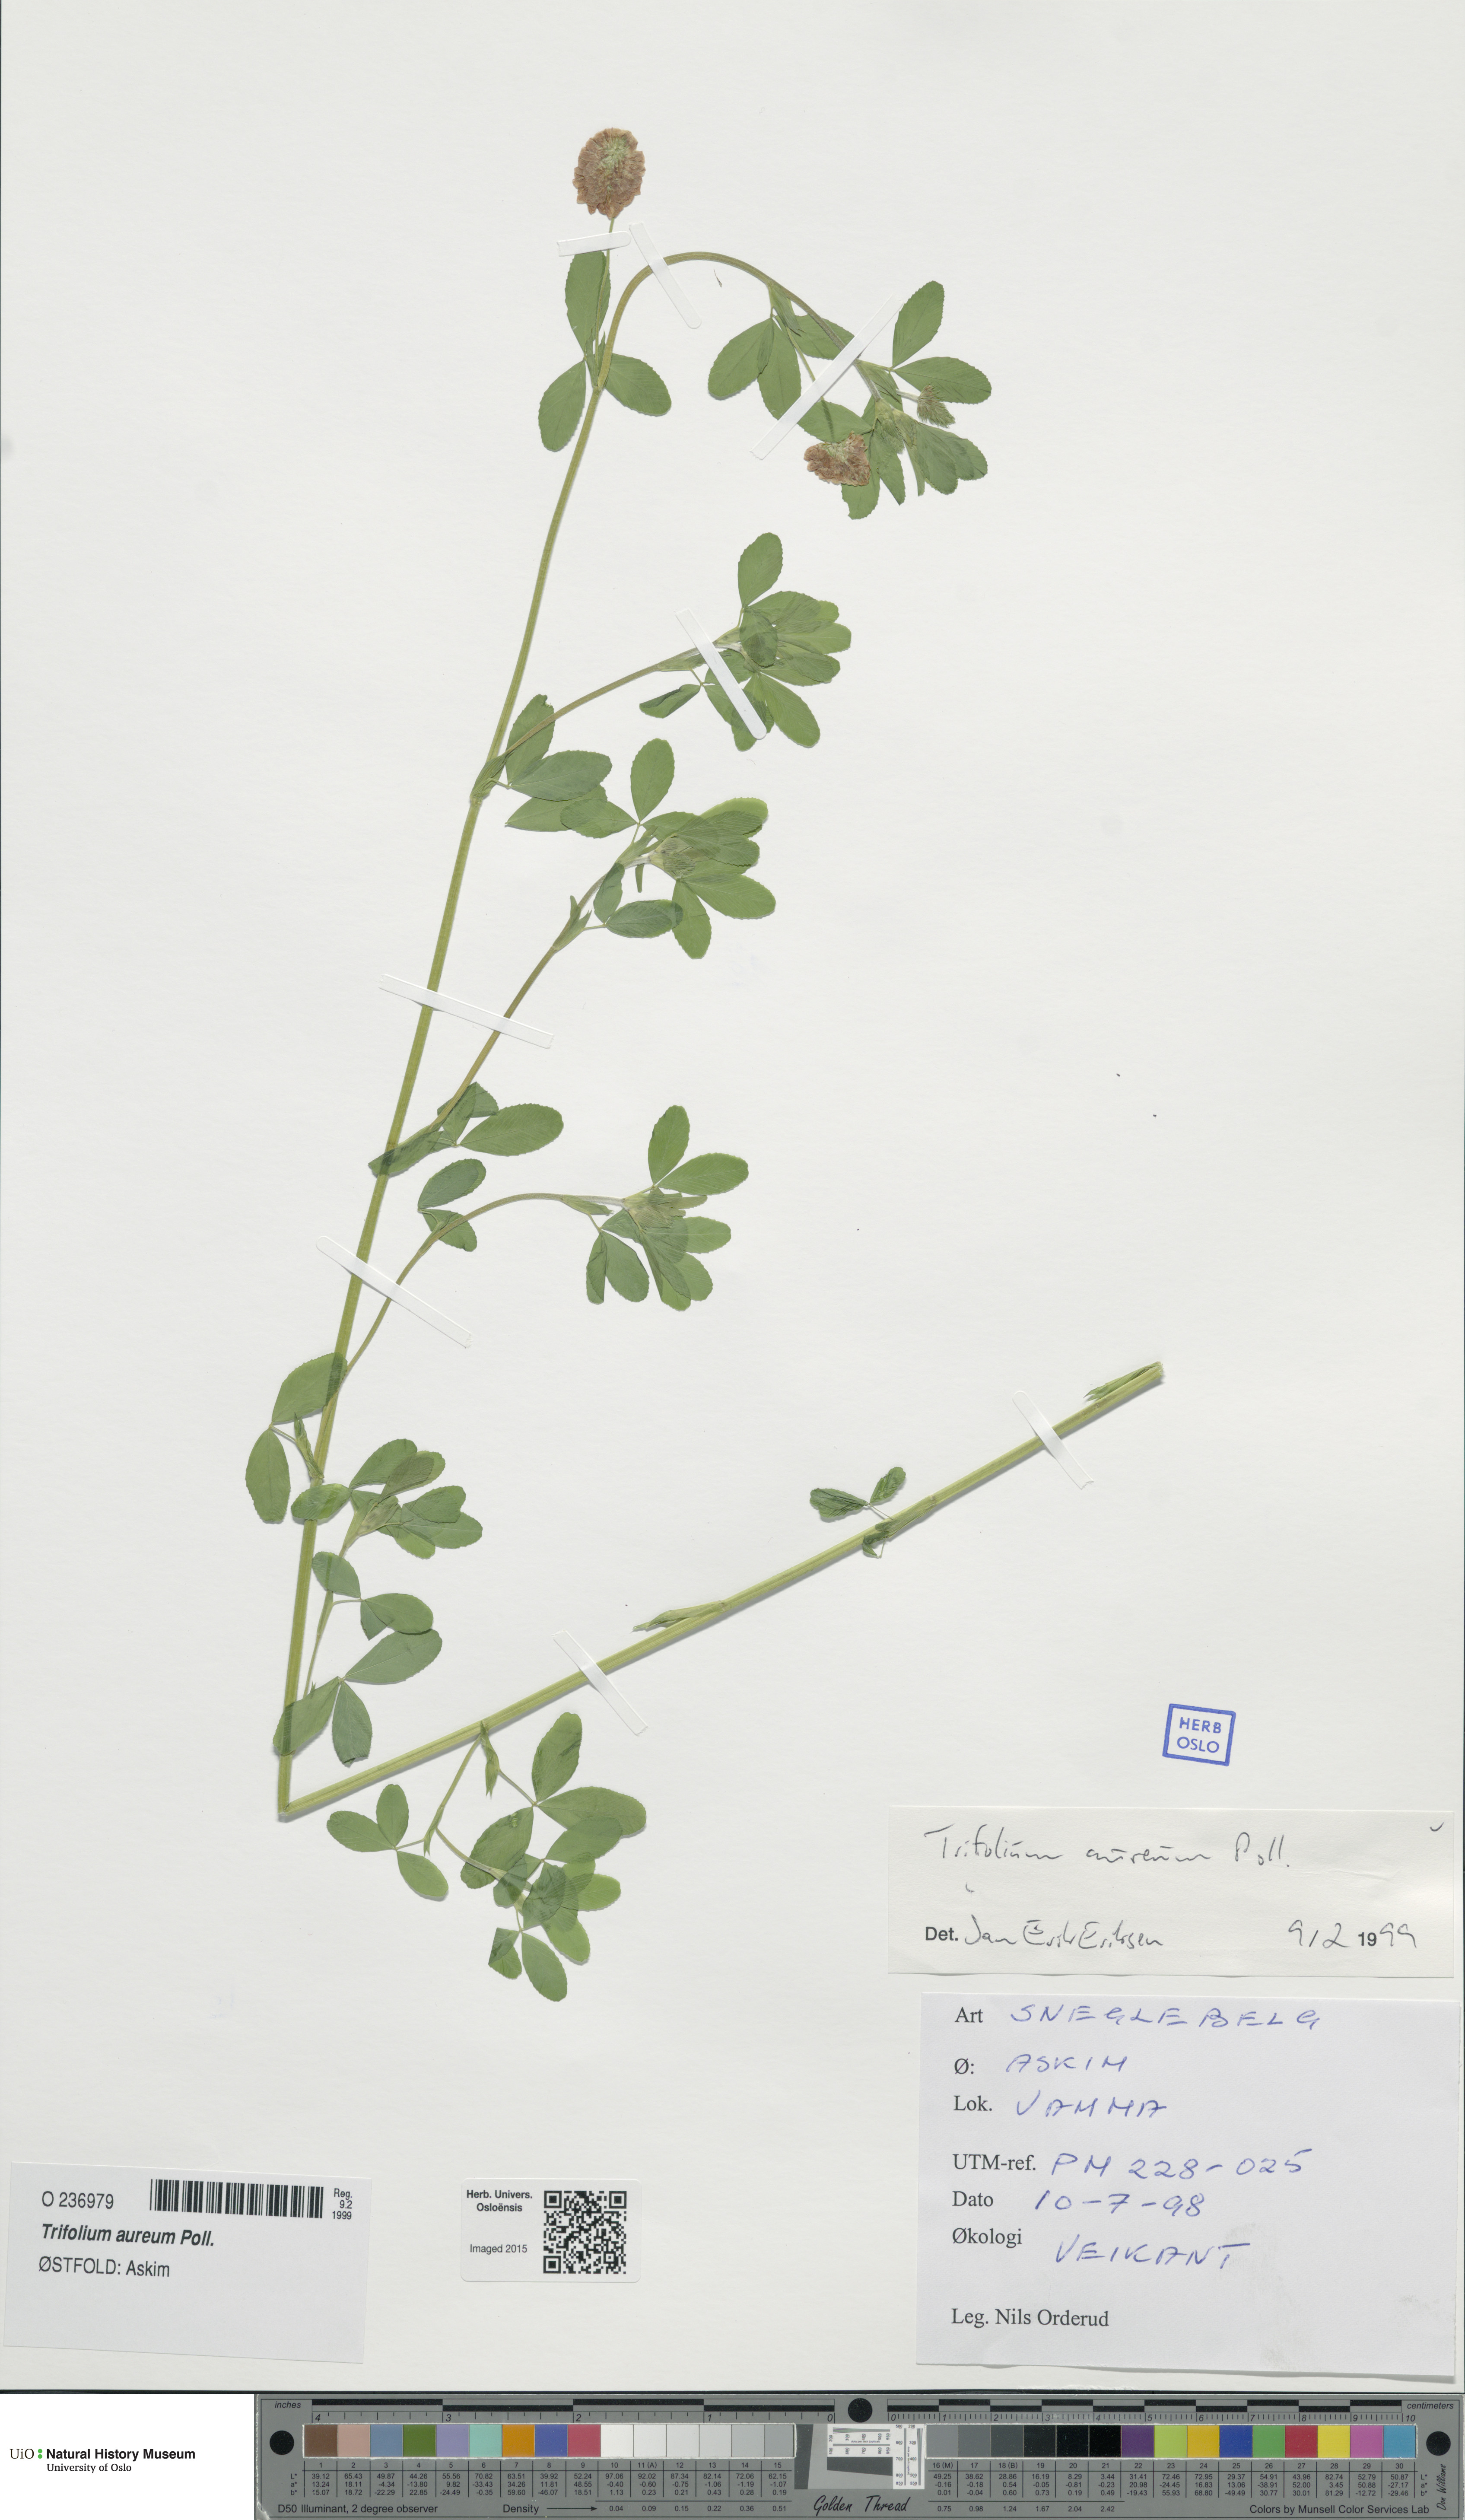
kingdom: Plantae
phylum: Tracheophyta
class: Magnoliopsida
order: Fabales
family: Fabaceae
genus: Trifolium
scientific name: Trifolium aureum
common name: Golden clover
